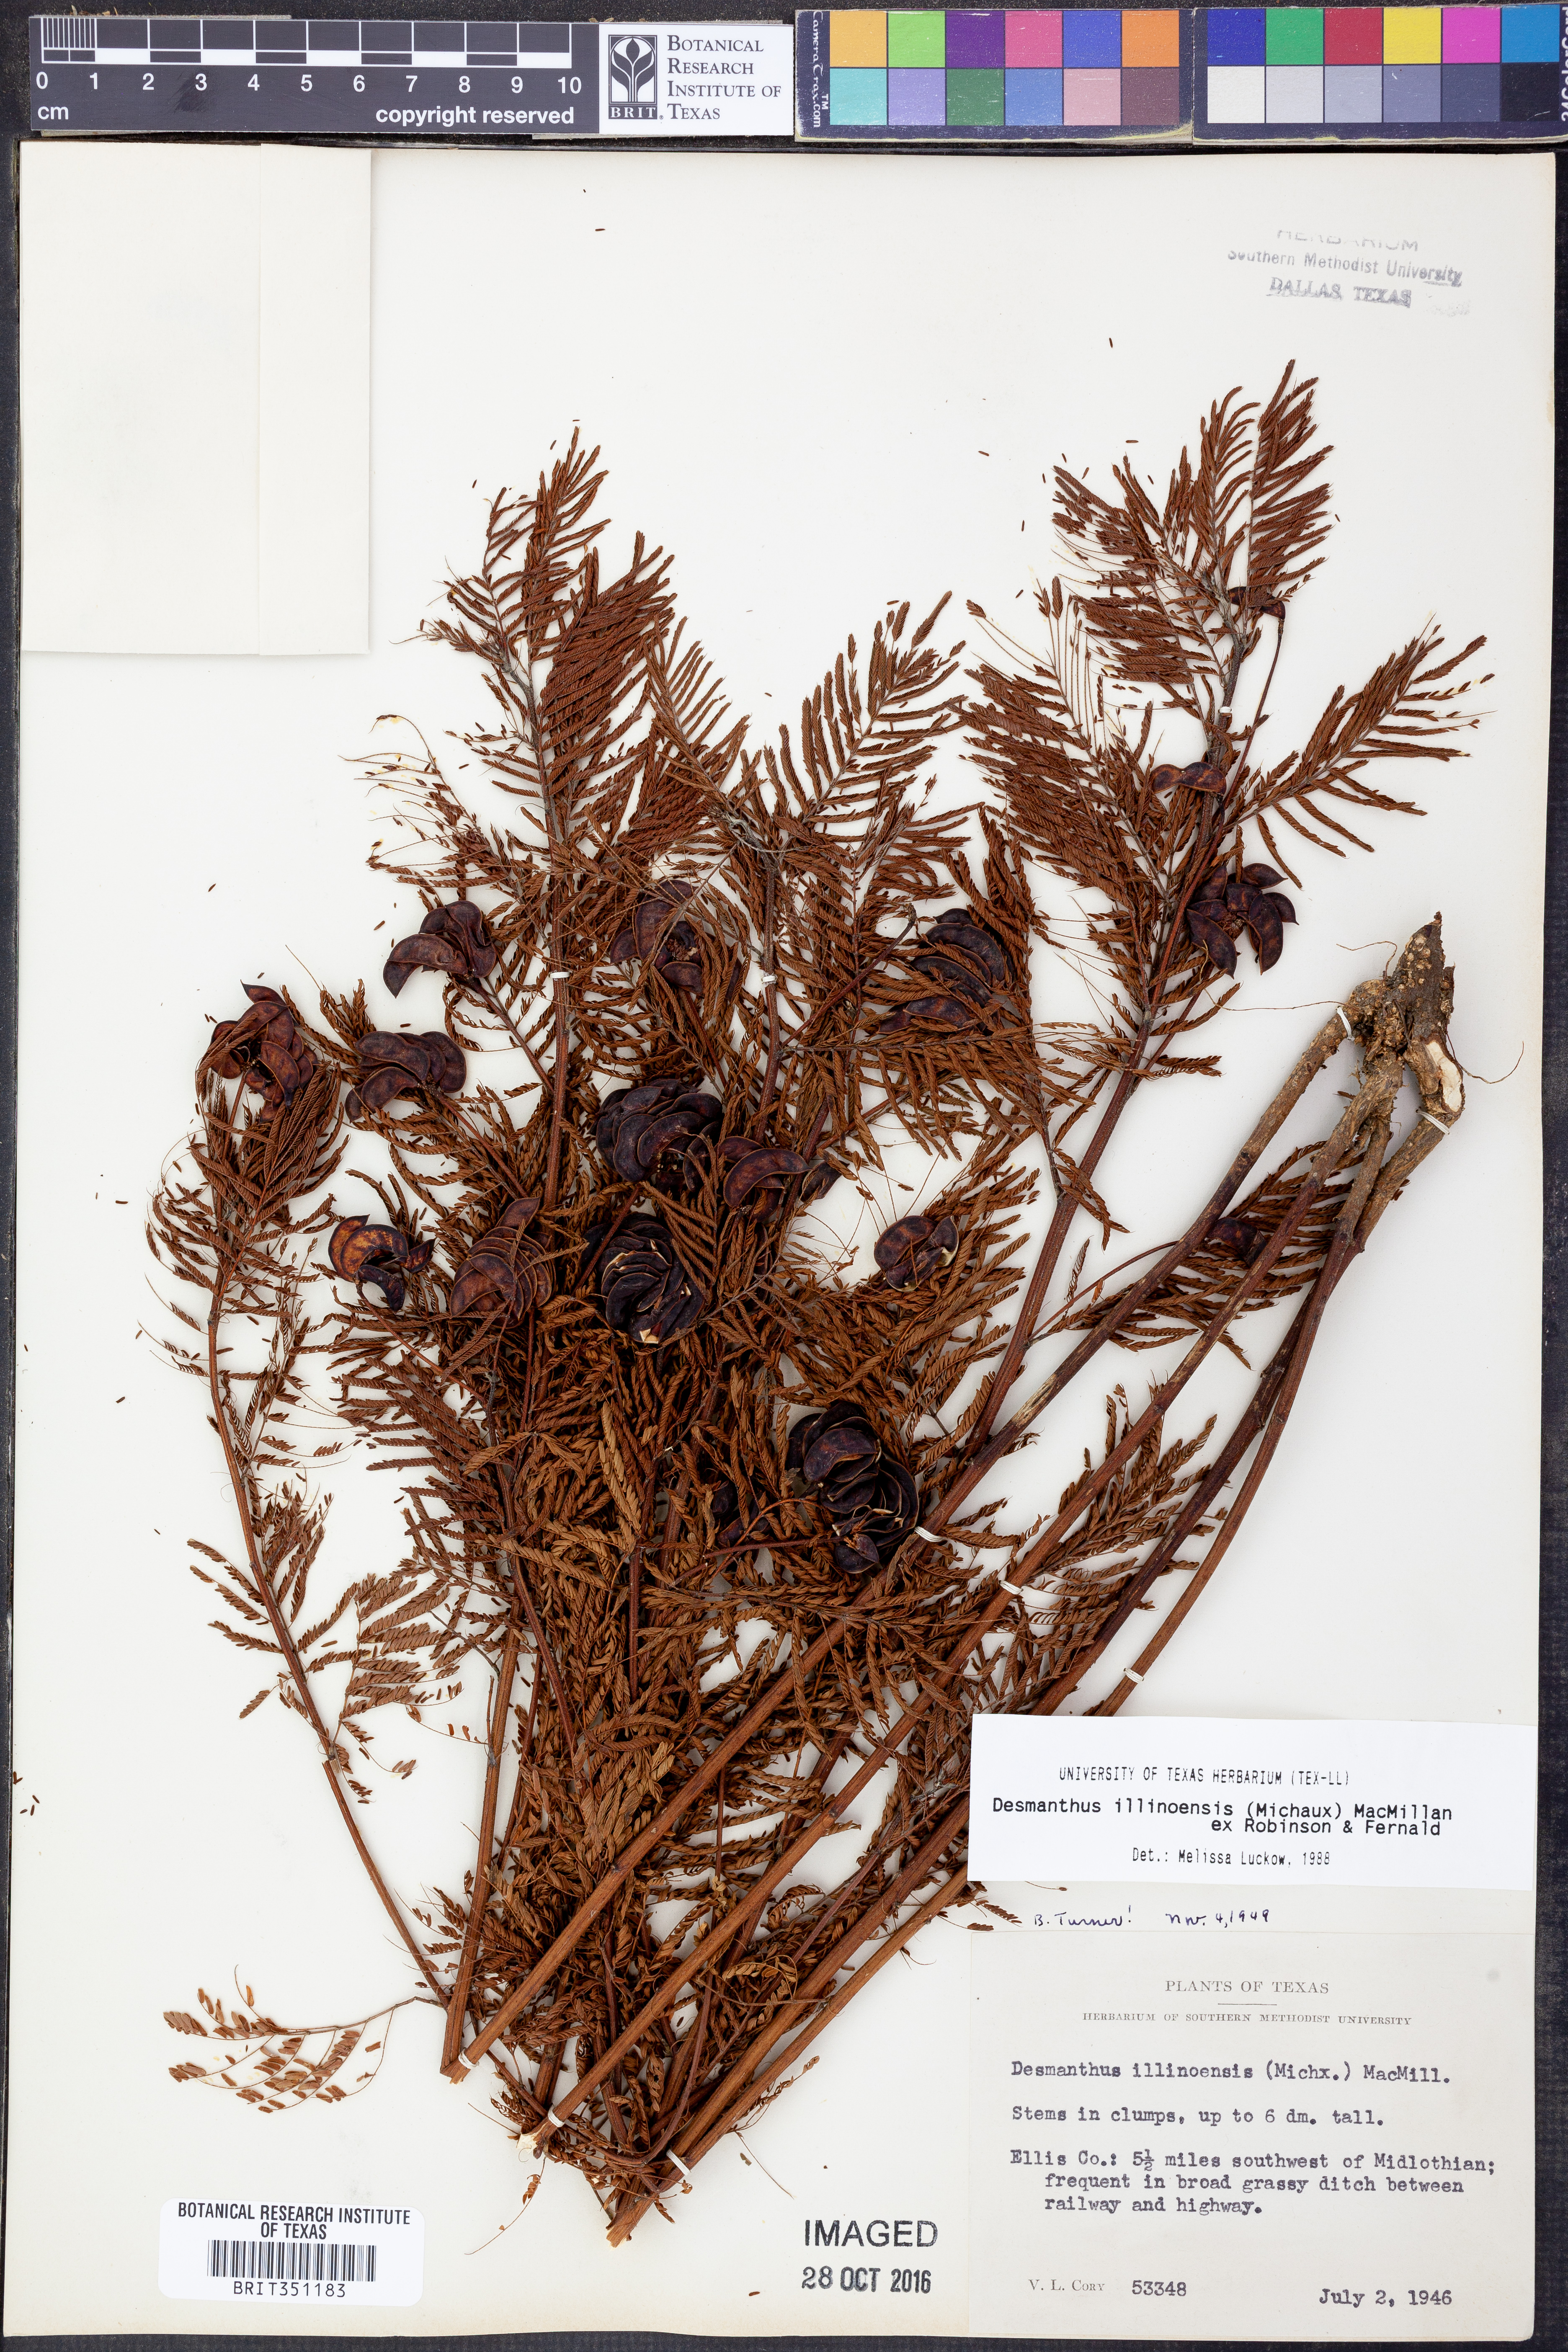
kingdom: Plantae
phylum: Tracheophyta
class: Magnoliopsida
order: Fabales
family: Fabaceae
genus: Desmanthus
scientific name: Desmanthus illinoensis
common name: Illinois bundle-flower
